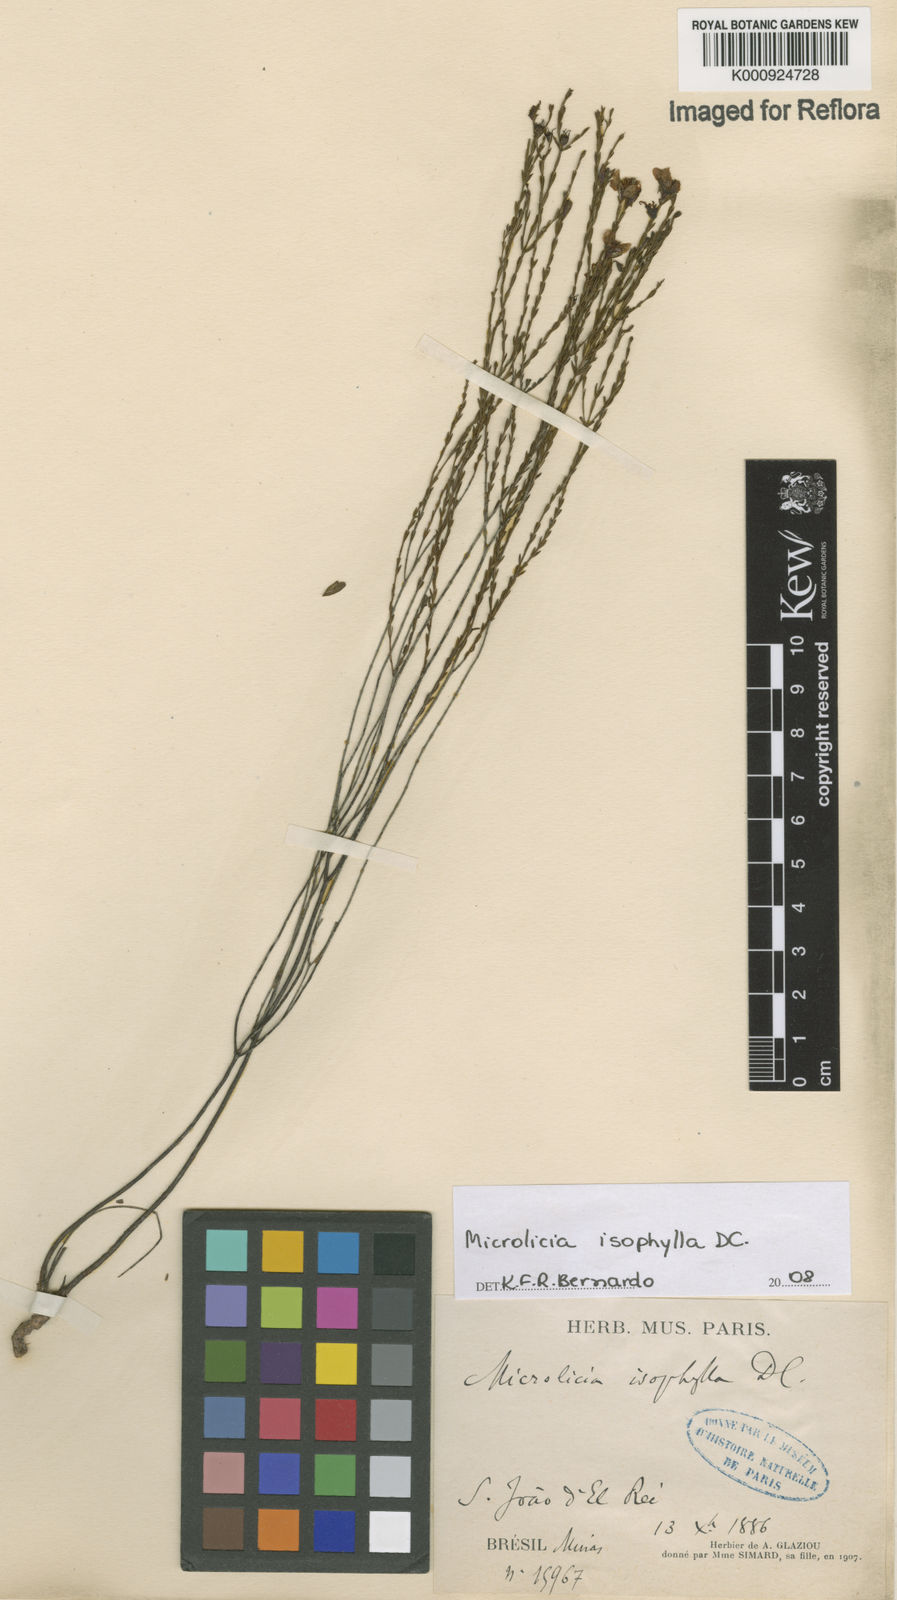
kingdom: Plantae
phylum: Tracheophyta
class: Magnoliopsida
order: Myrtales
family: Melastomataceae
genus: Microlicia
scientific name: Microlicia isophylla
